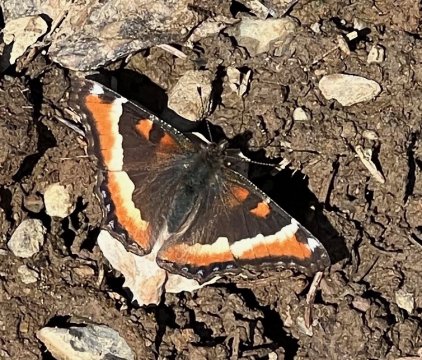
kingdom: Animalia
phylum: Arthropoda
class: Insecta
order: Lepidoptera
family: Nymphalidae
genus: Aglais
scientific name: Aglais milberti
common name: Milbert's Tortoiseshell
